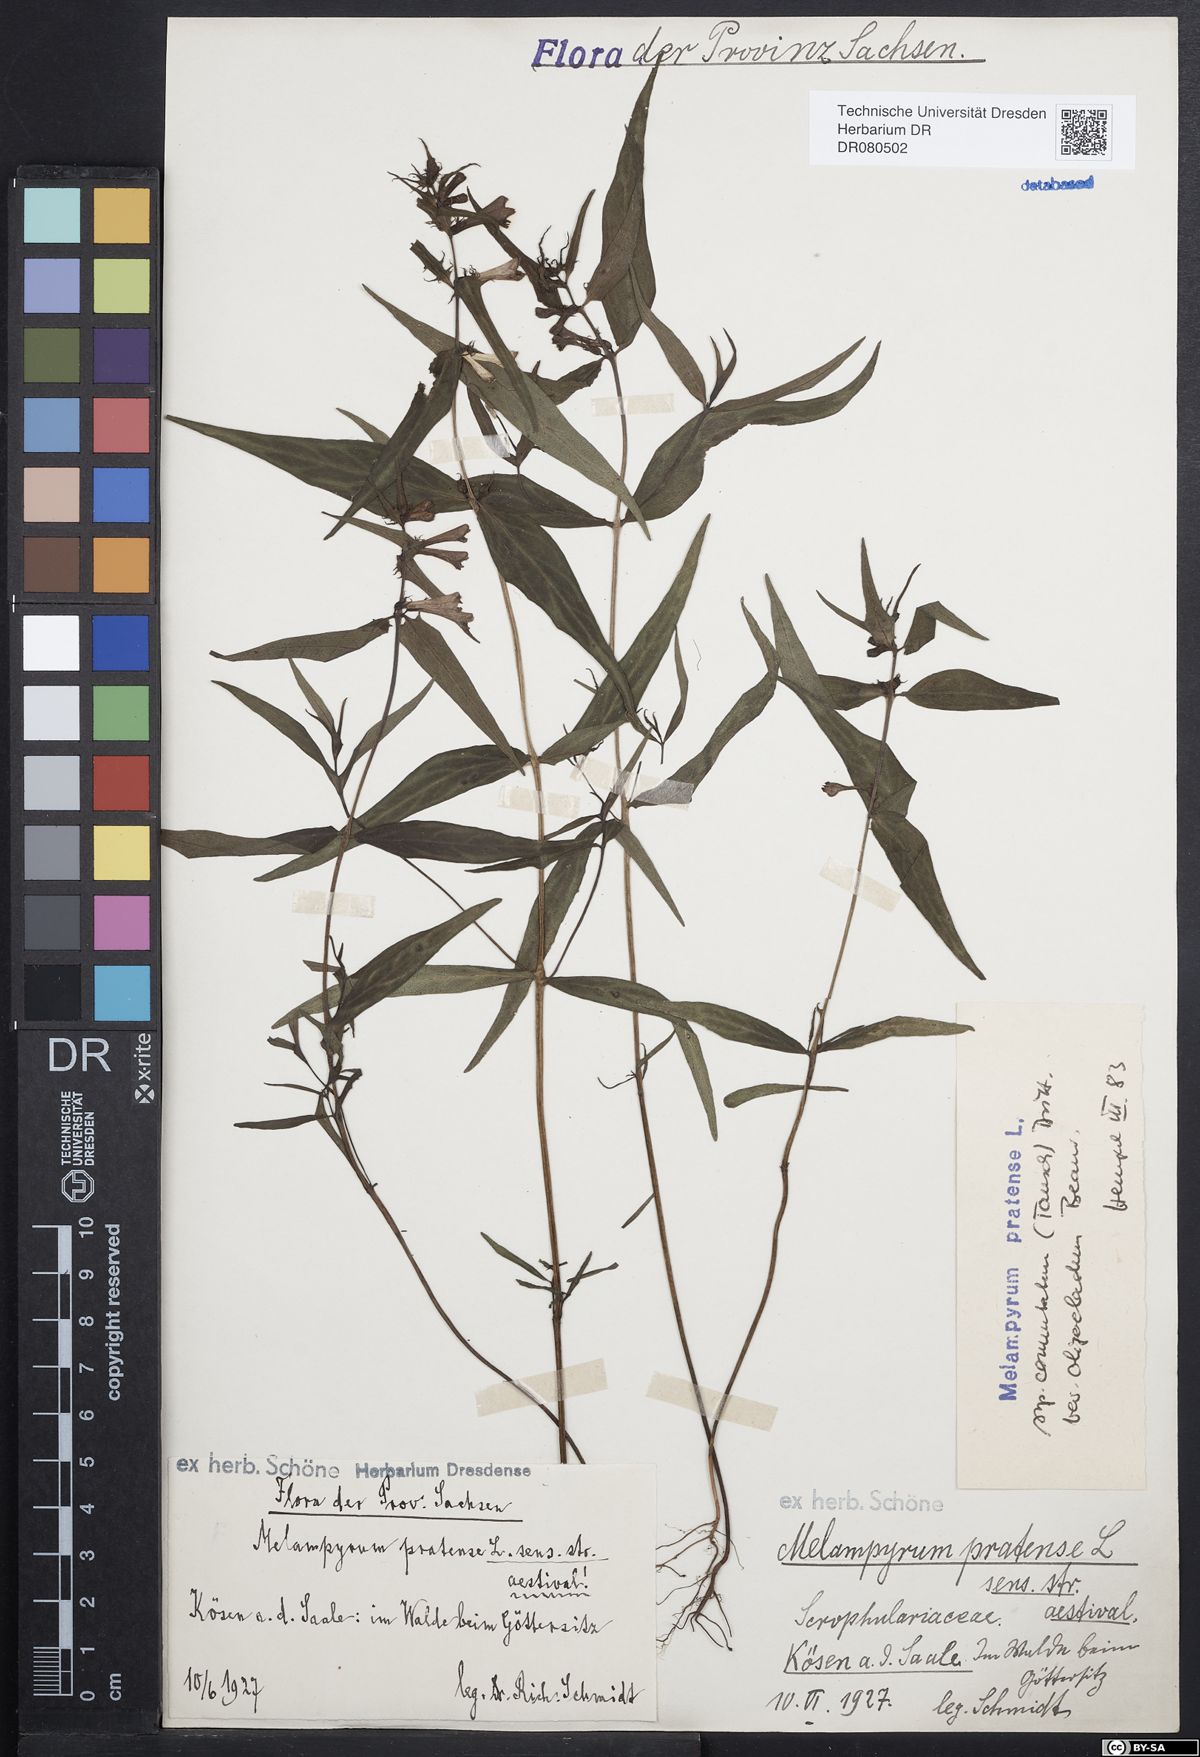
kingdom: Plantae
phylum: Tracheophyta
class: Magnoliopsida
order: Lamiales
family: Orobanchaceae
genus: Melampyrum
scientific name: Melampyrum pratense
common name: Common cow-wheat
